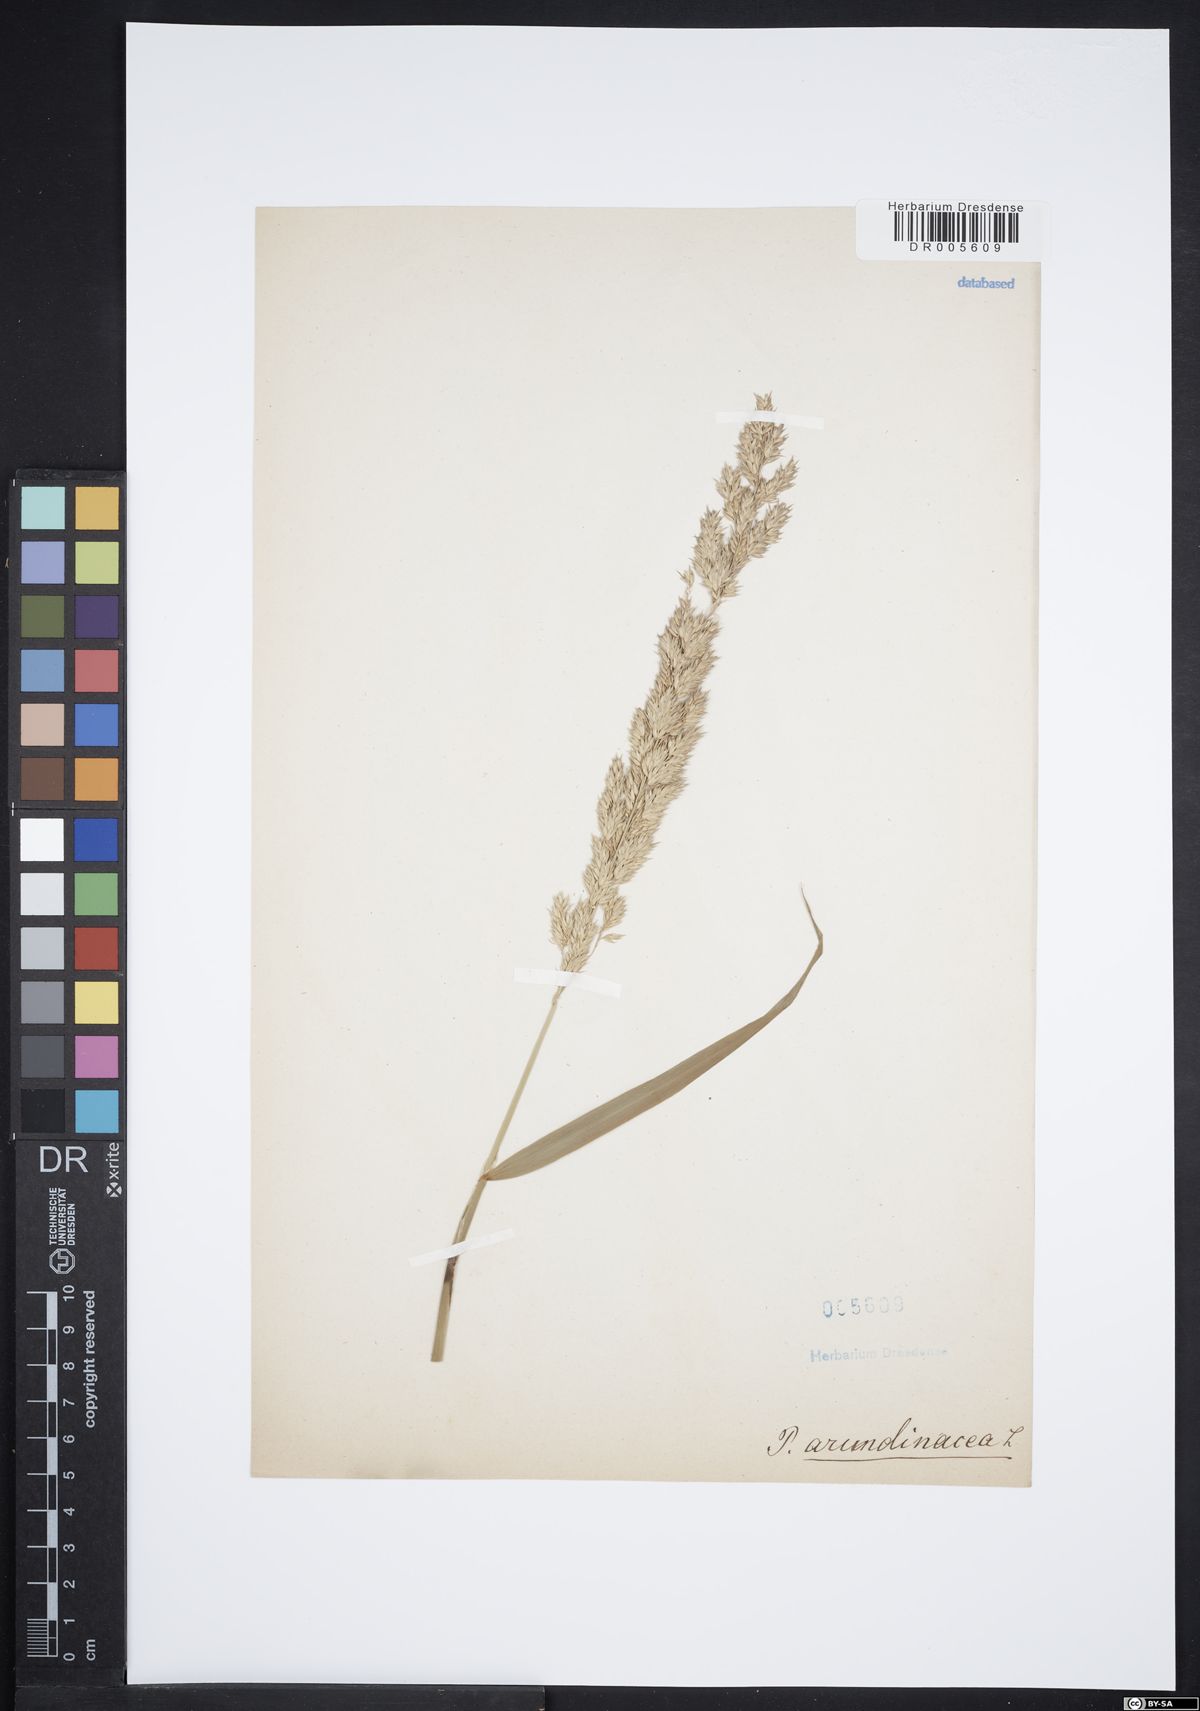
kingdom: Plantae
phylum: Tracheophyta
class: Liliopsida
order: Poales
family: Poaceae
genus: Phalaris
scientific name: Phalaris arundinacea
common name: Reed canary-grass
